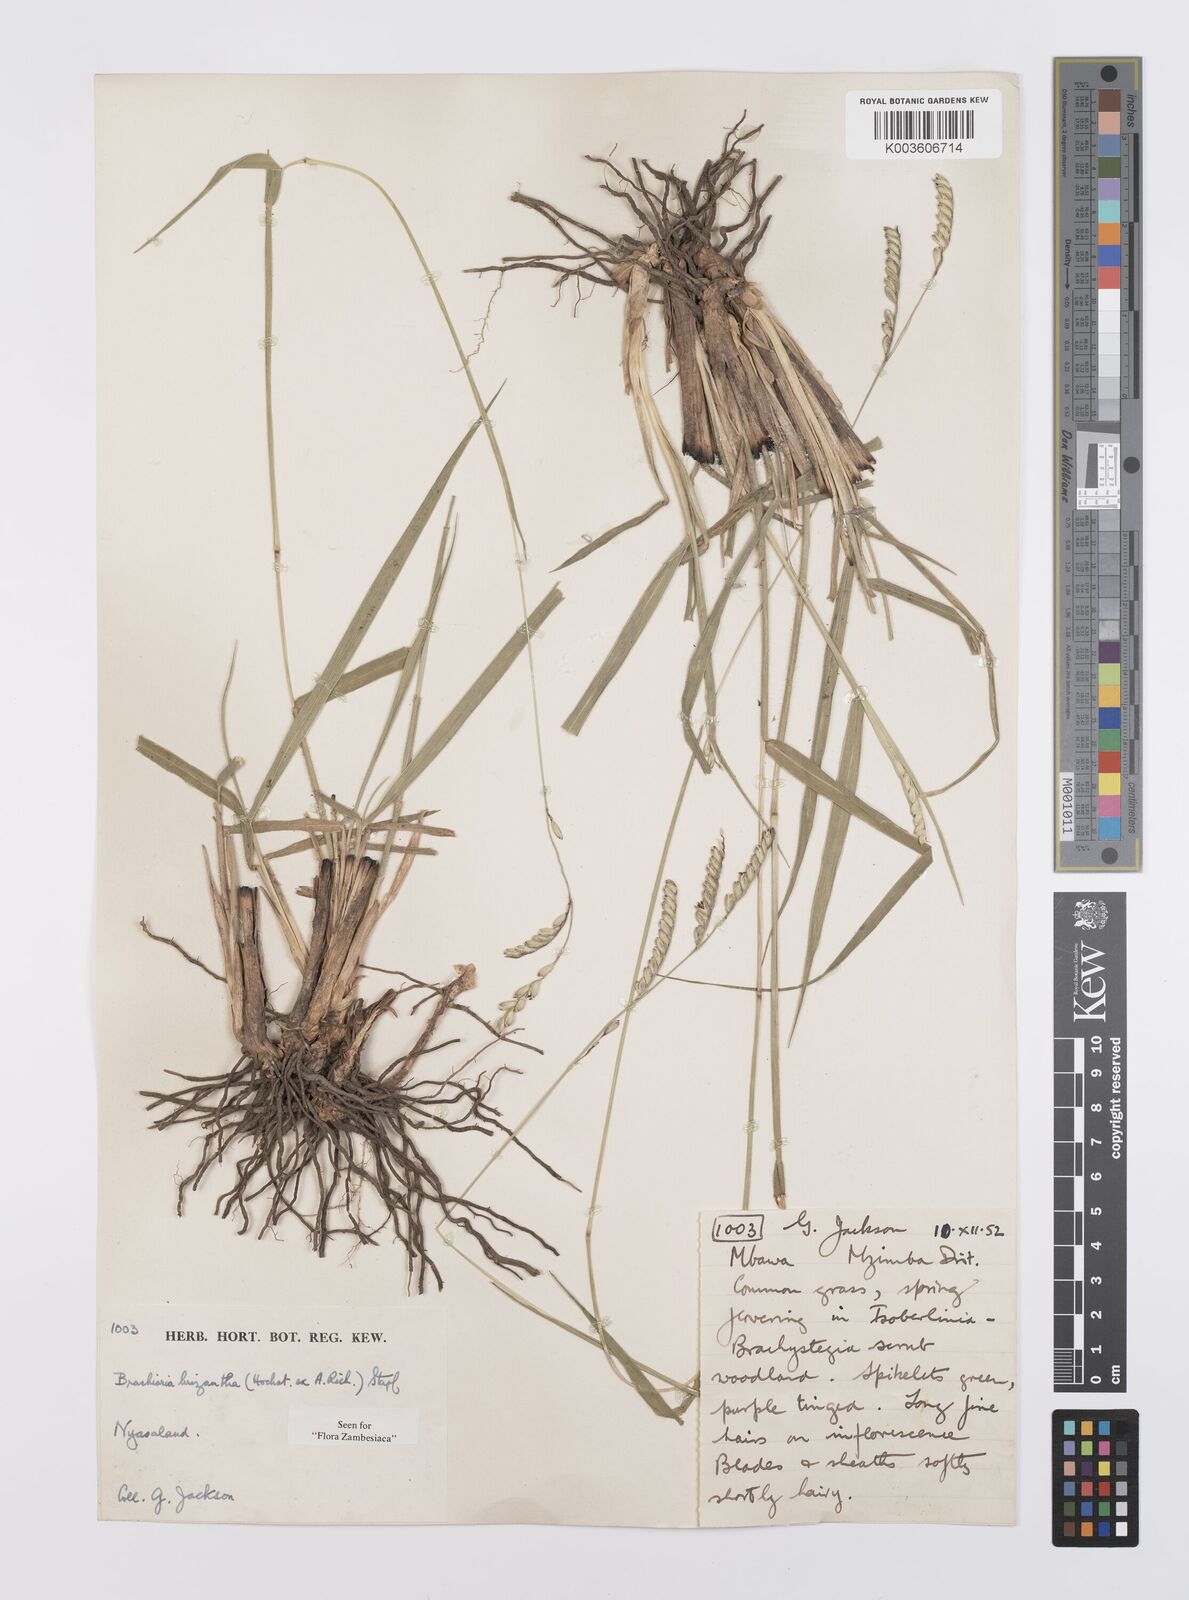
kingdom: Plantae
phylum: Tracheophyta
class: Liliopsida
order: Poales
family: Poaceae
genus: Urochloa
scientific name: Urochloa brizantha
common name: Palisade signalgrass
